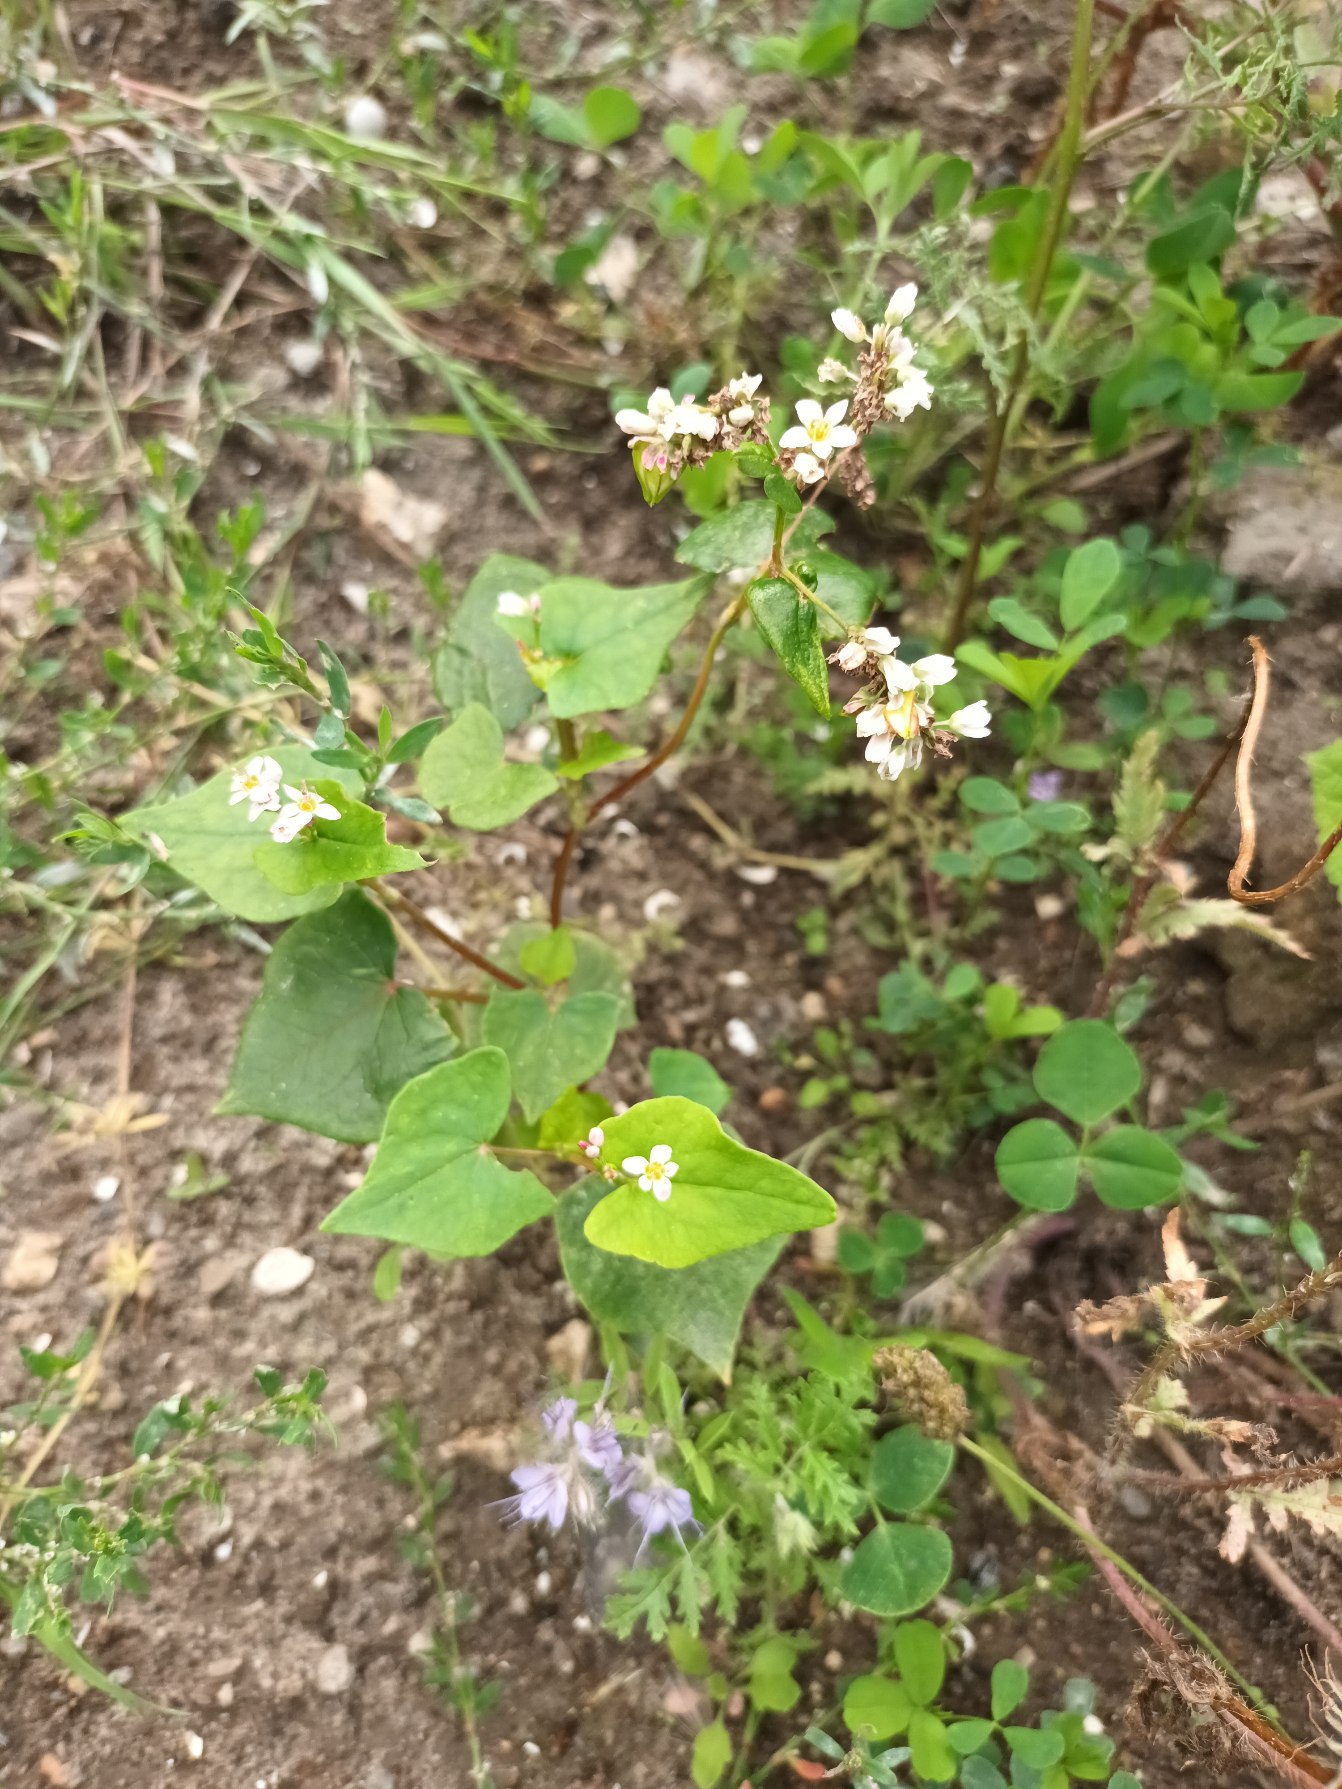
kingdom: Plantae
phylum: Tracheophyta
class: Magnoliopsida
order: Caryophyllales
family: Polygonaceae
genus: Fagopyrum
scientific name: Fagopyrum esculentum
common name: Almindelig boghvede
